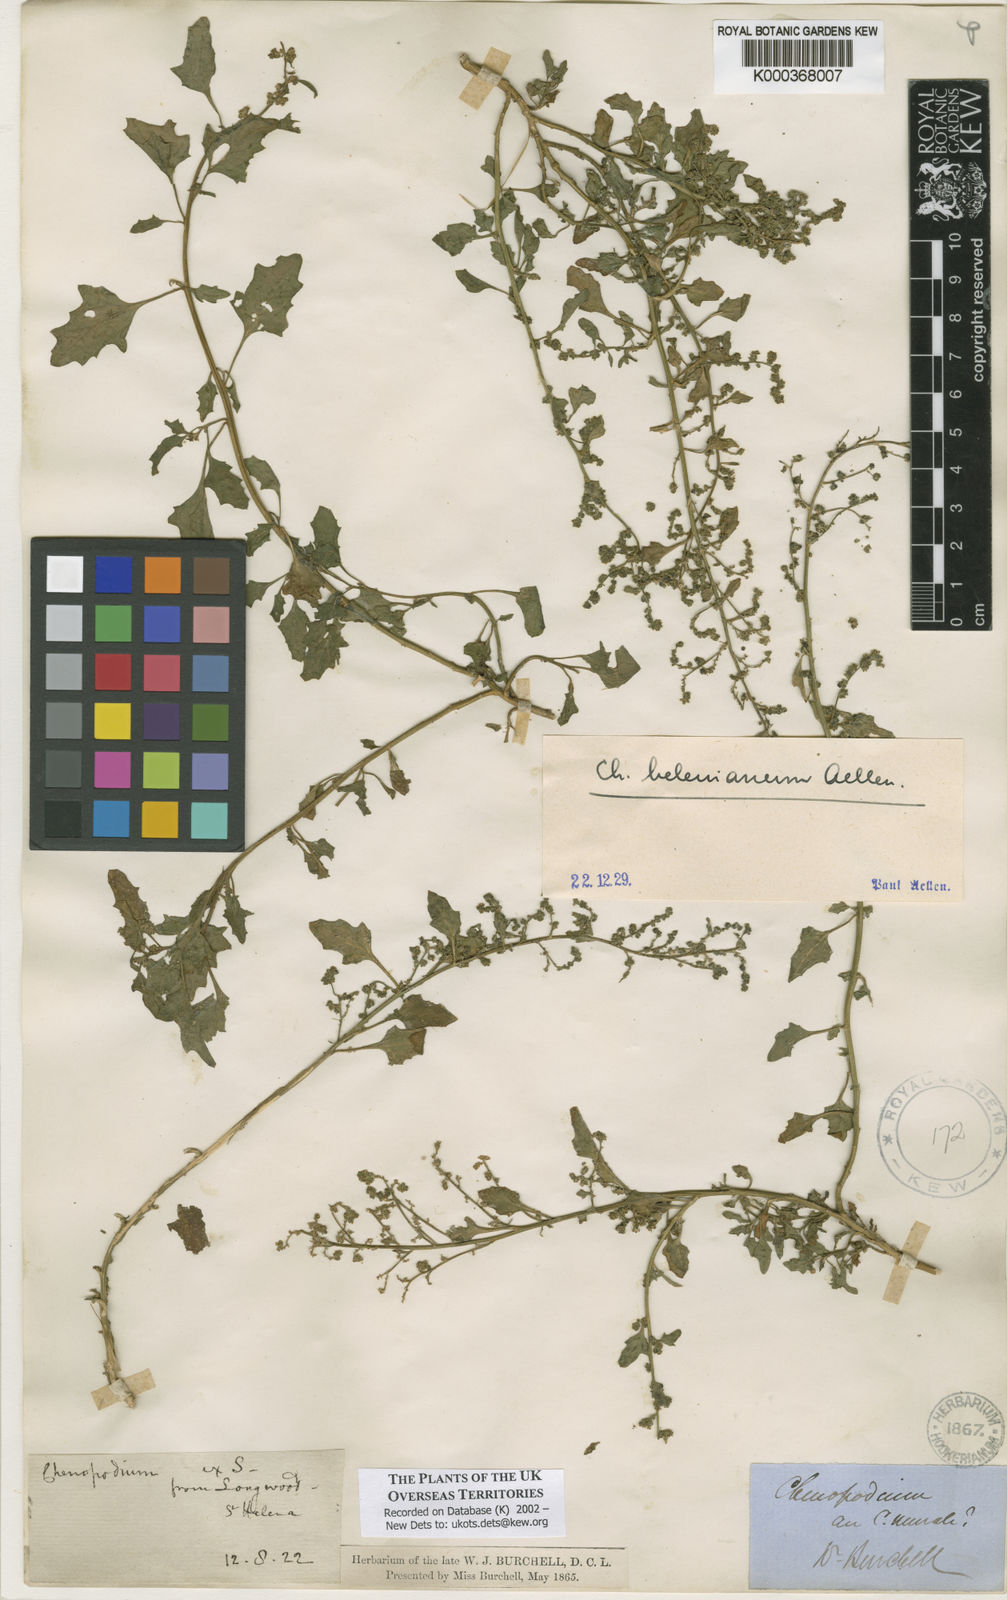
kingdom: Plantae
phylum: Tracheophyta
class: Magnoliopsida
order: Caryophyllales
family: Amaranthaceae
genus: Chenopodium
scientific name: Chenopodium
